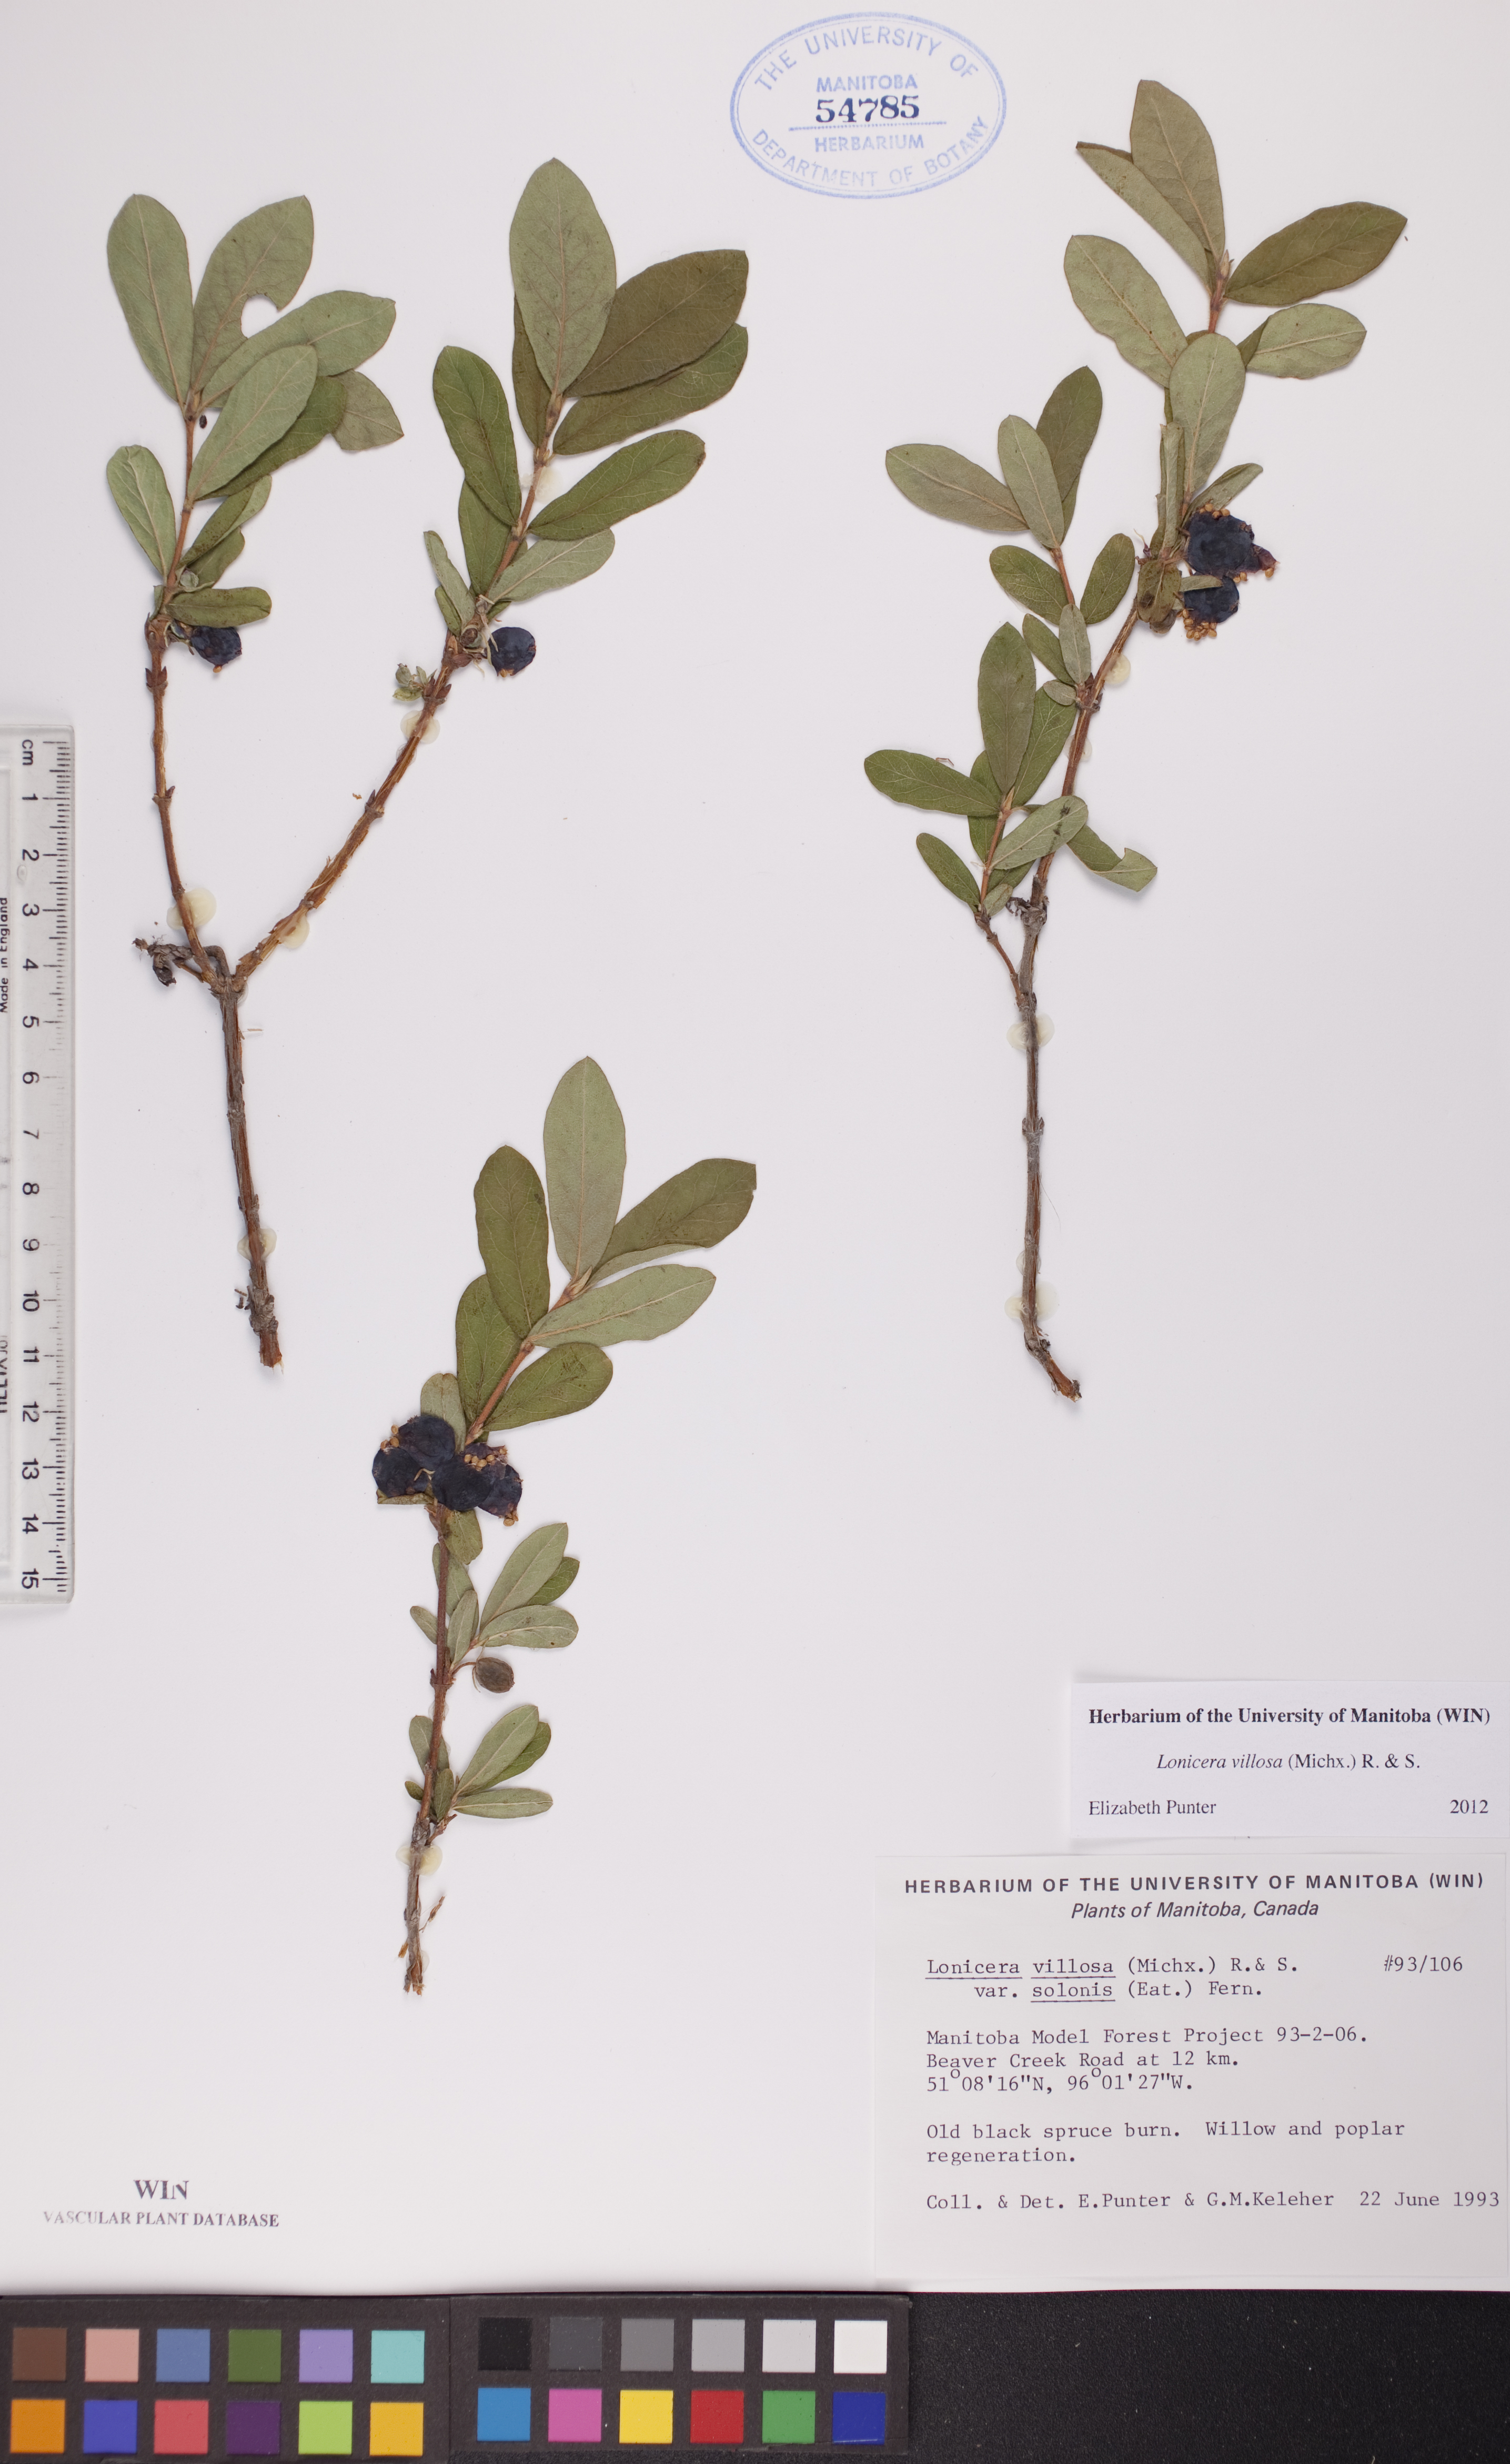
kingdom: Plantae
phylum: Tracheophyta
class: Magnoliopsida
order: Dipsacales
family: Caprifoliaceae
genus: Lonicera
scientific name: Lonicera villosa
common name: Mountain fly-honeysuckle
